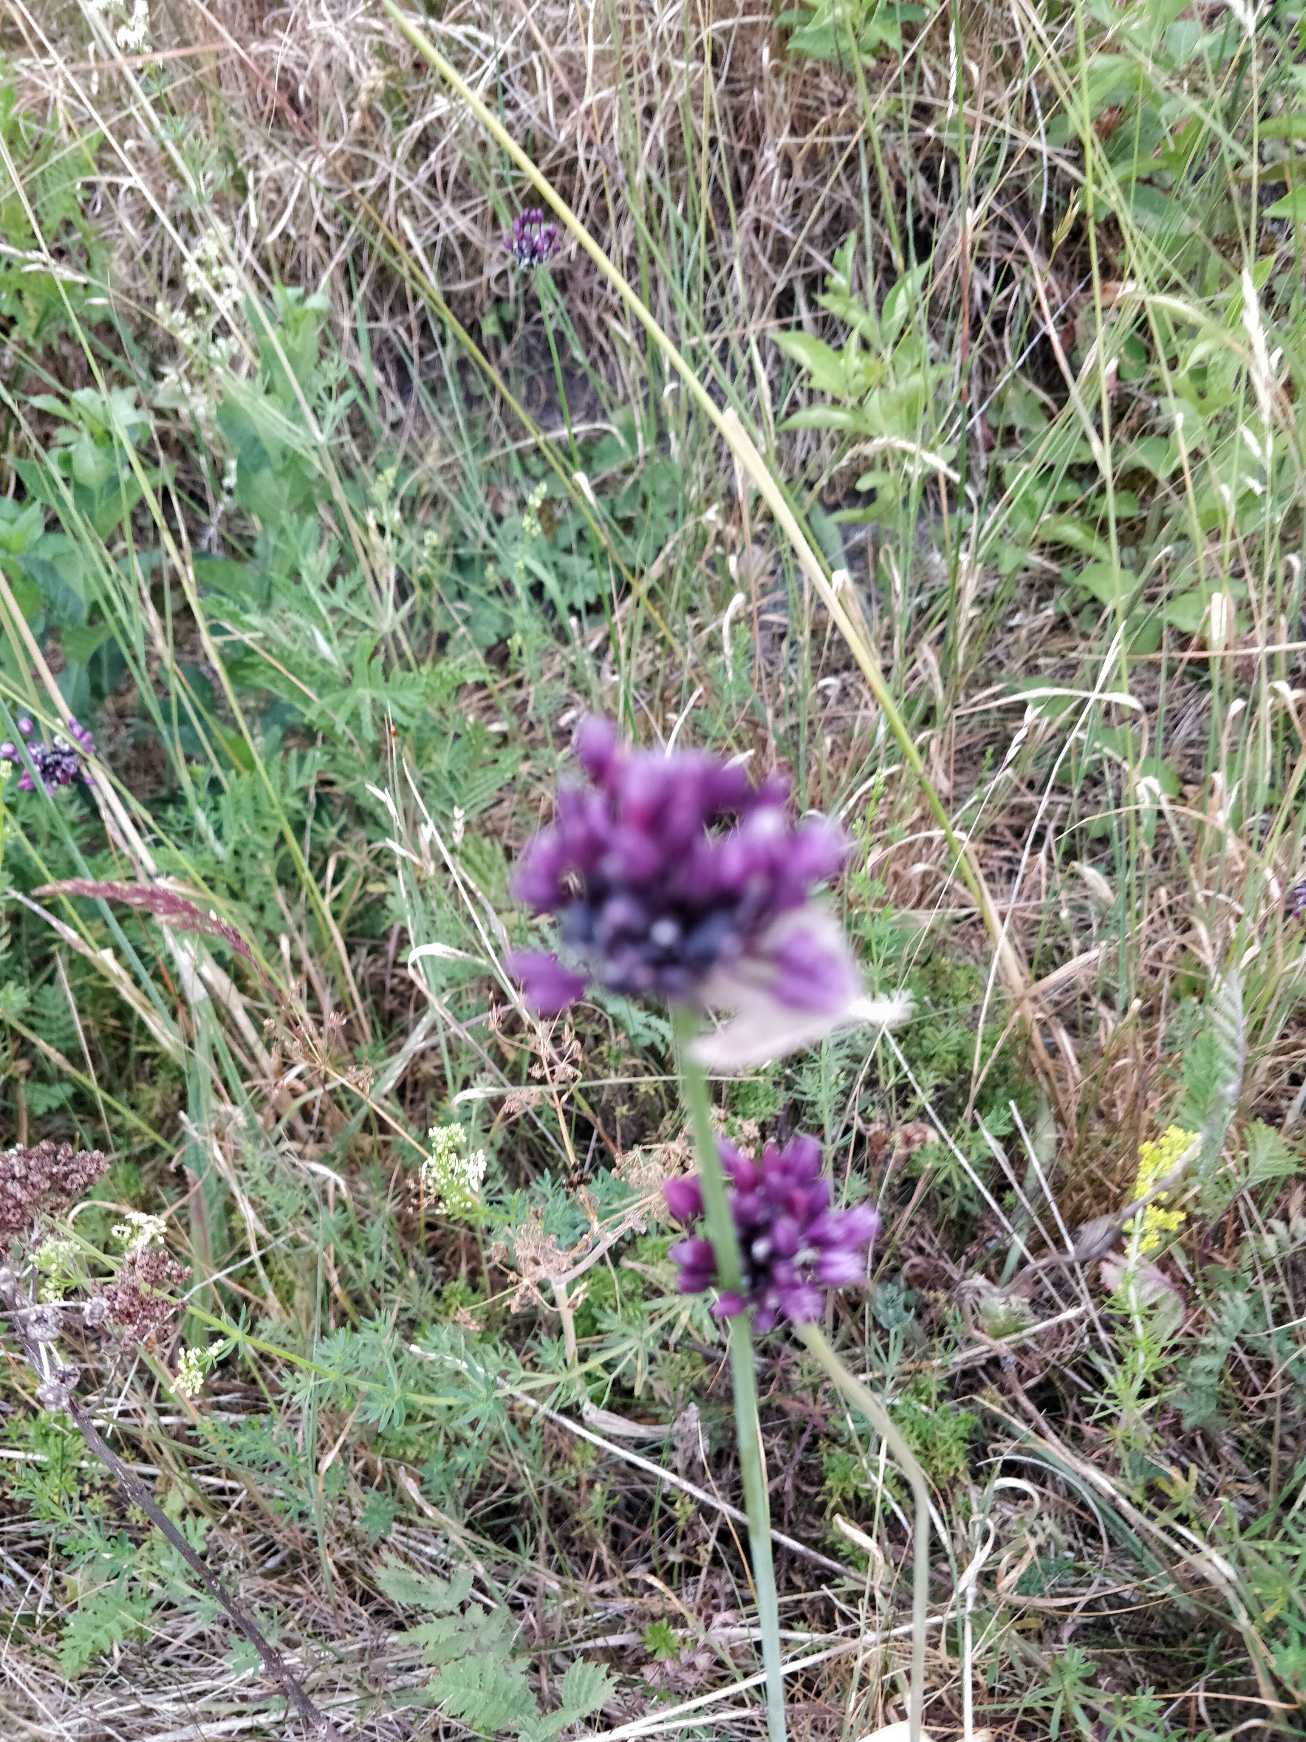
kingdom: Plantae
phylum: Tracheophyta
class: Liliopsida
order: Asparagales
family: Amaryllidaceae
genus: Allium
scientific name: Allium scorodoprasum
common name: Skov-løg
